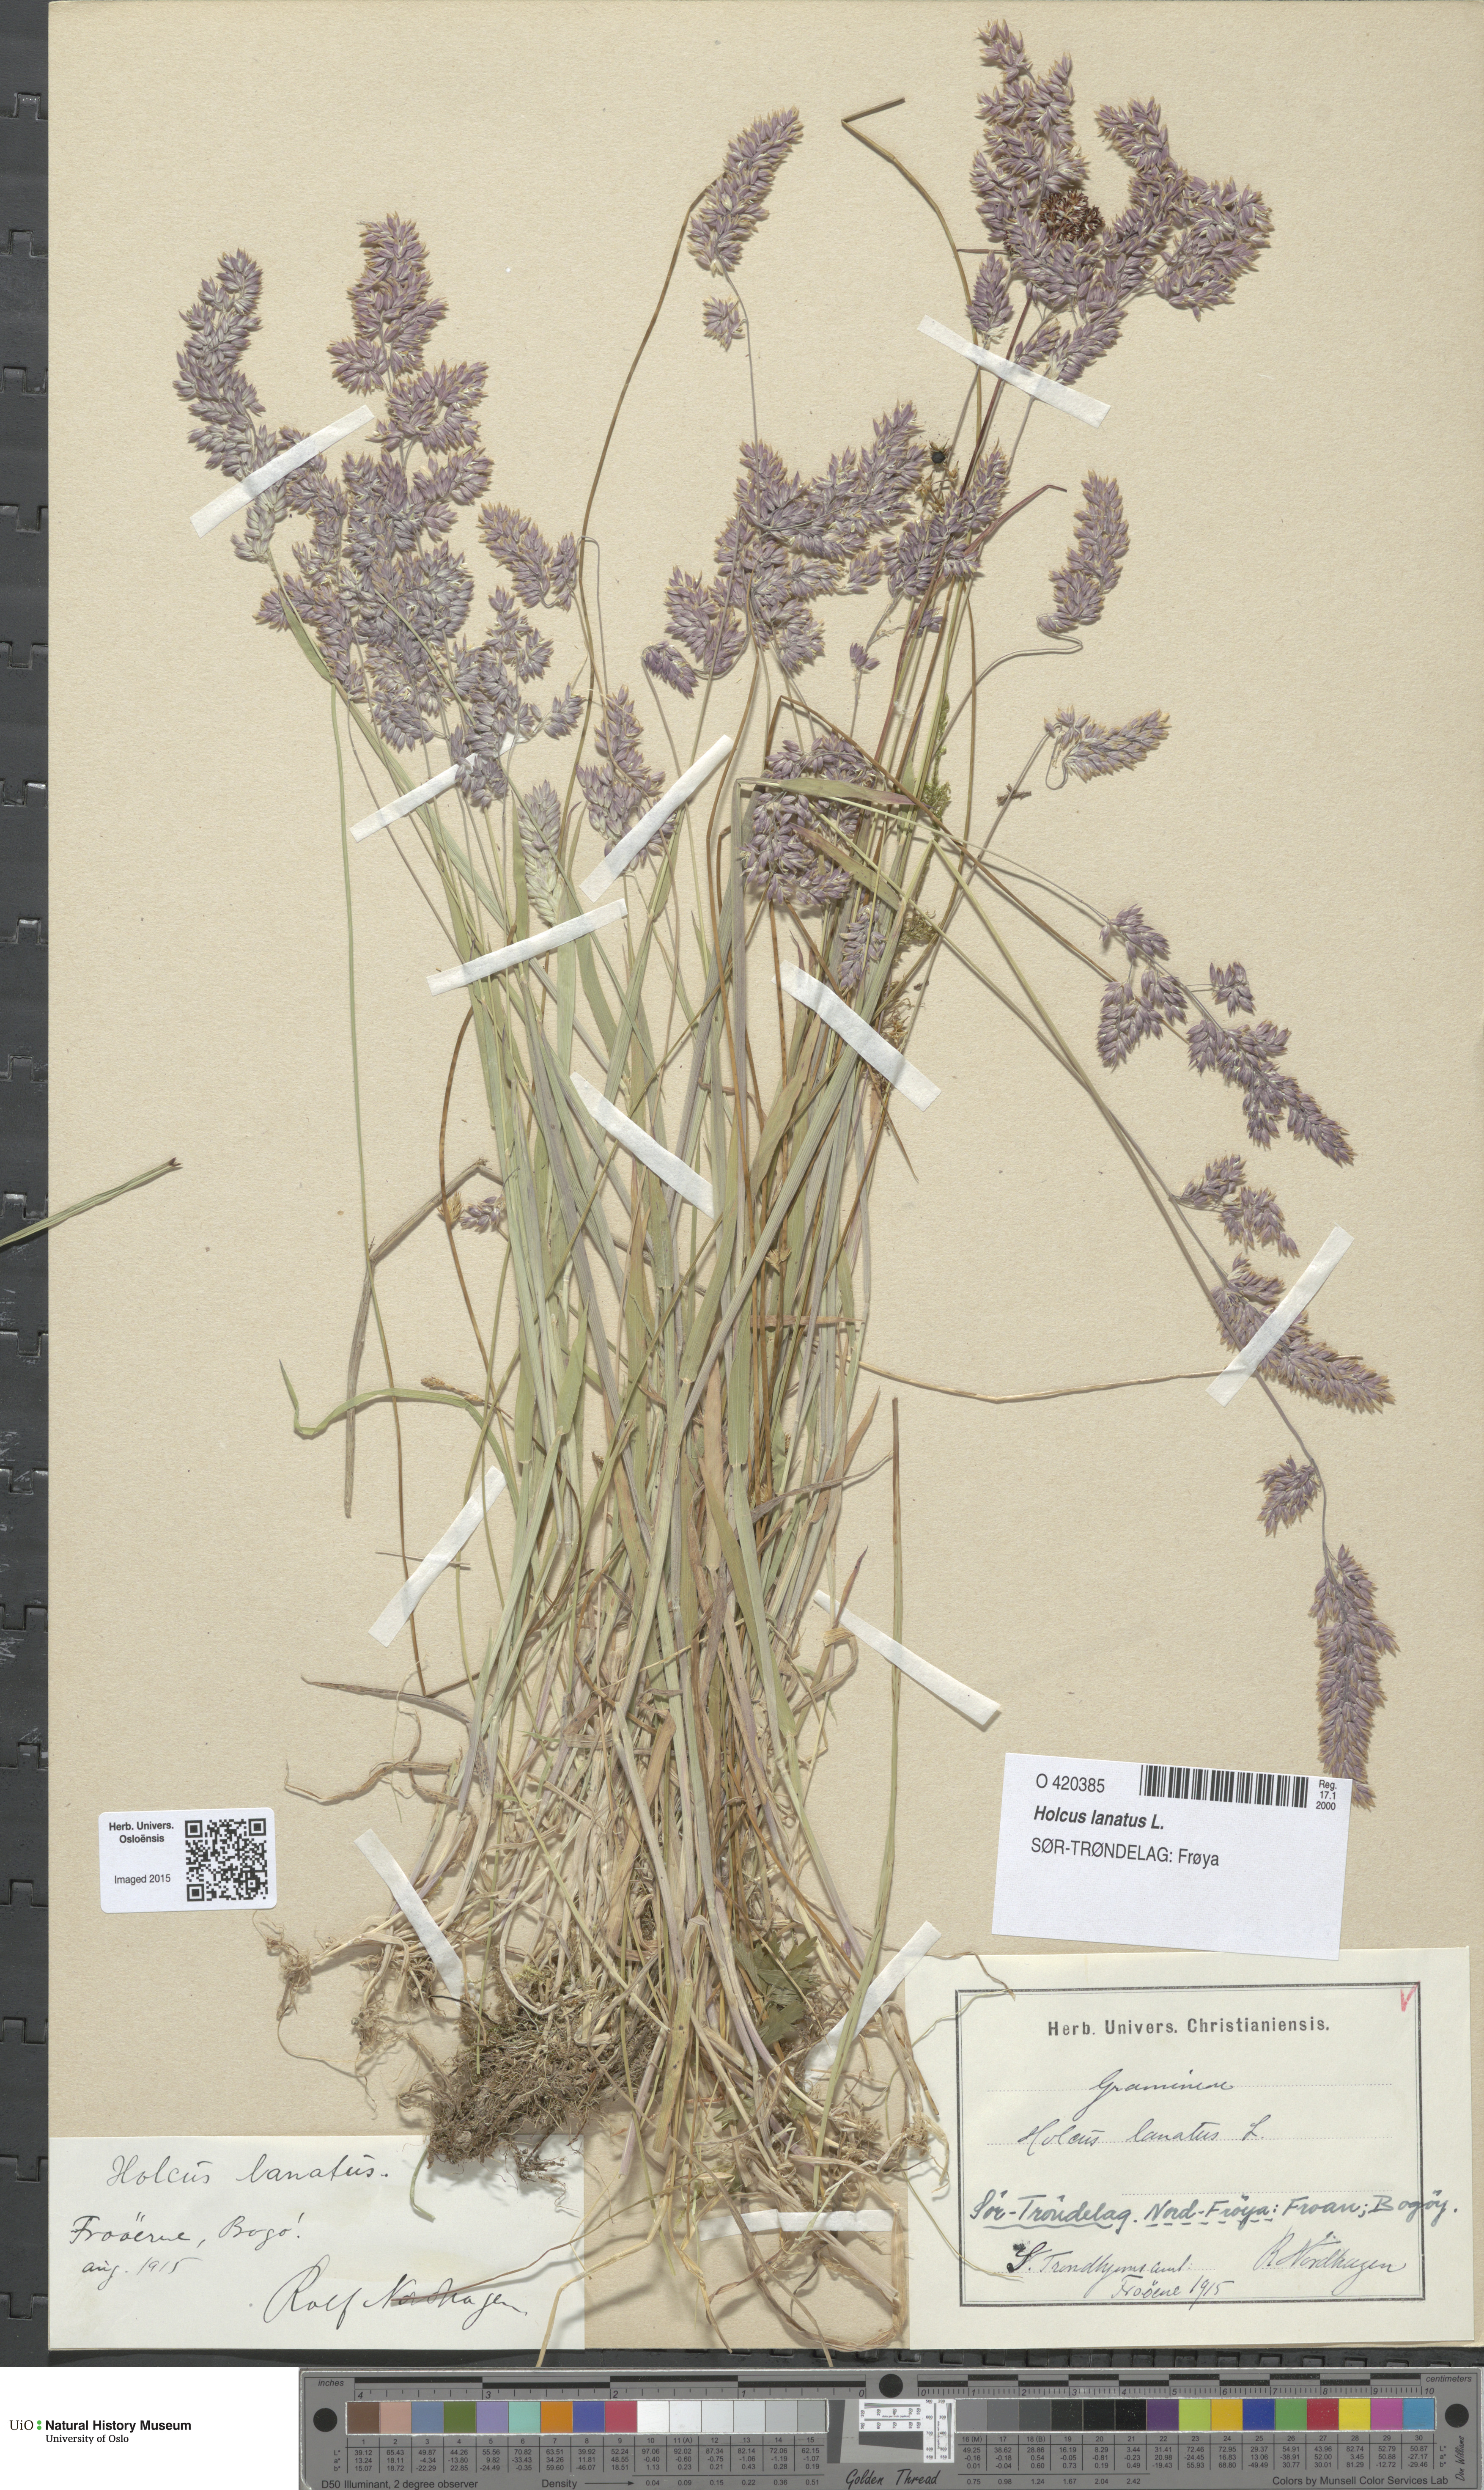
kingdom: Plantae
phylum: Tracheophyta
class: Liliopsida
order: Poales
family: Poaceae
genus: Holcus
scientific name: Holcus lanatus
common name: Yorkshire-fog
